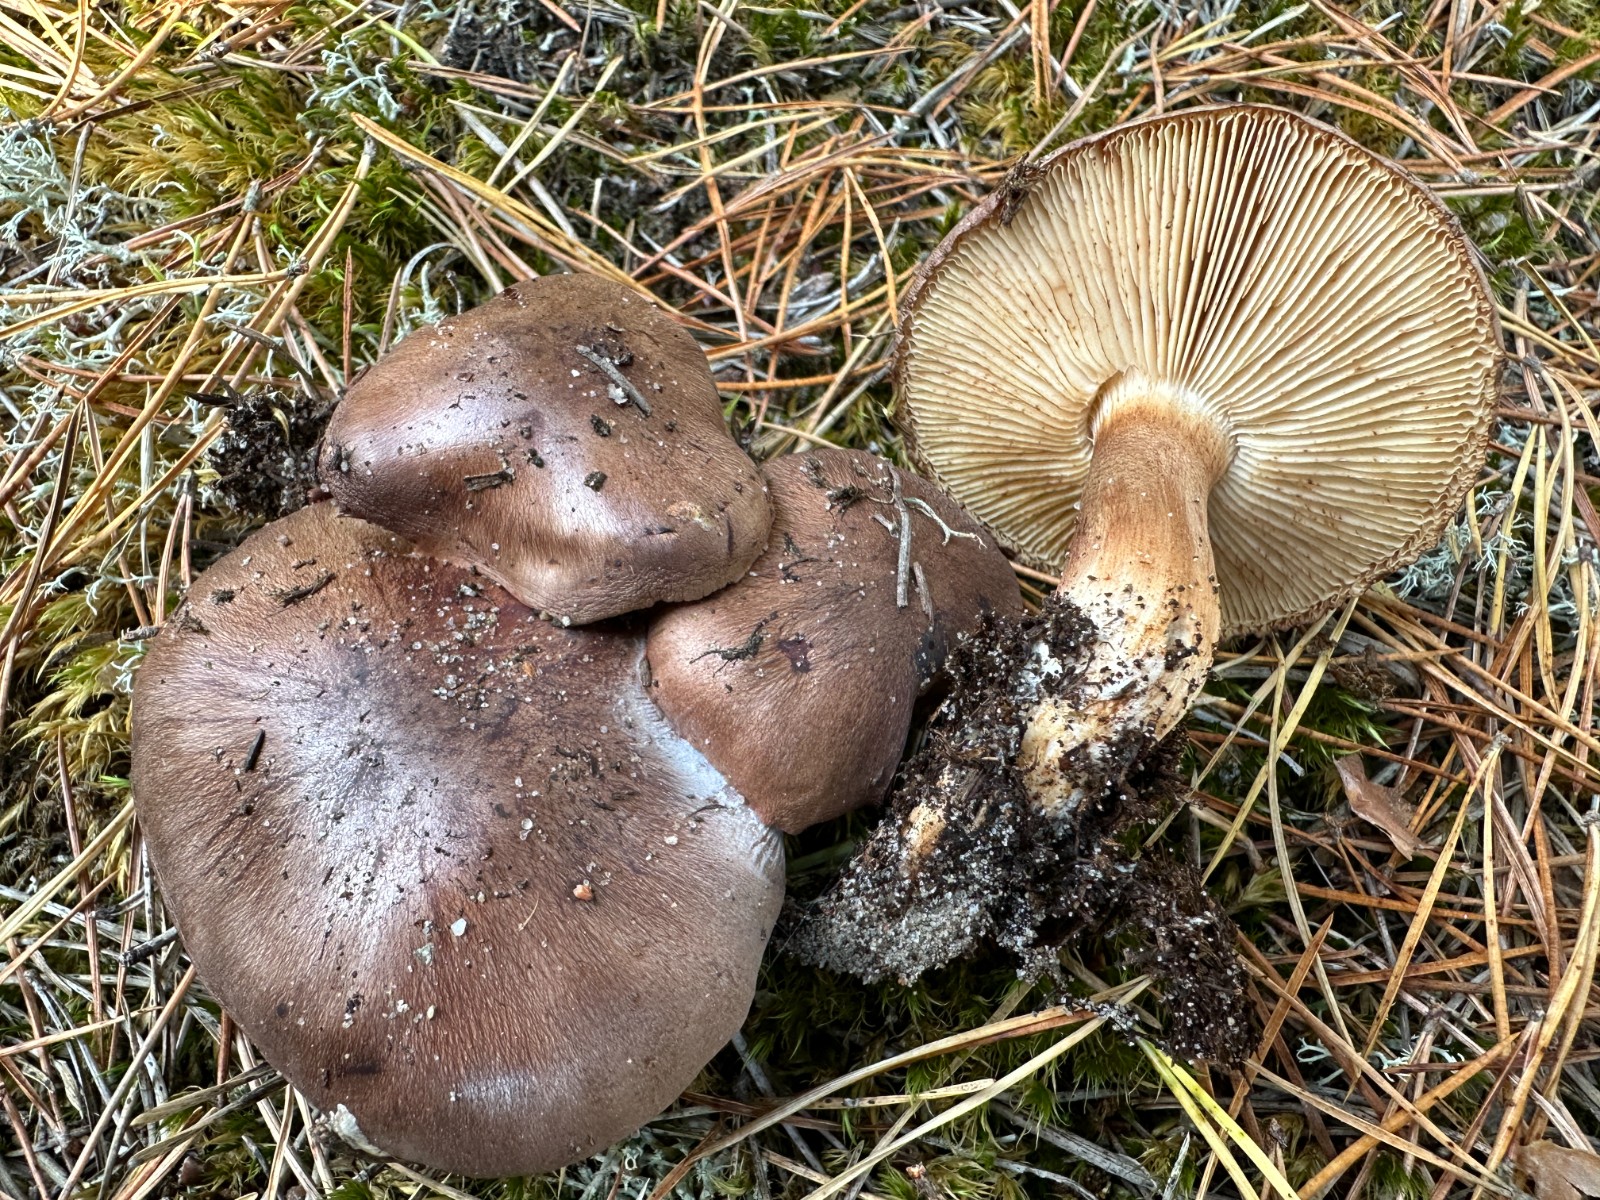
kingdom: Fungi
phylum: Basidiomycota
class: Agaricomycetes
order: Agaricales
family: Tricholomataceae
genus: Tricholoma
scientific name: Tricholoma albobrunneum
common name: kastanie-ridderhat
